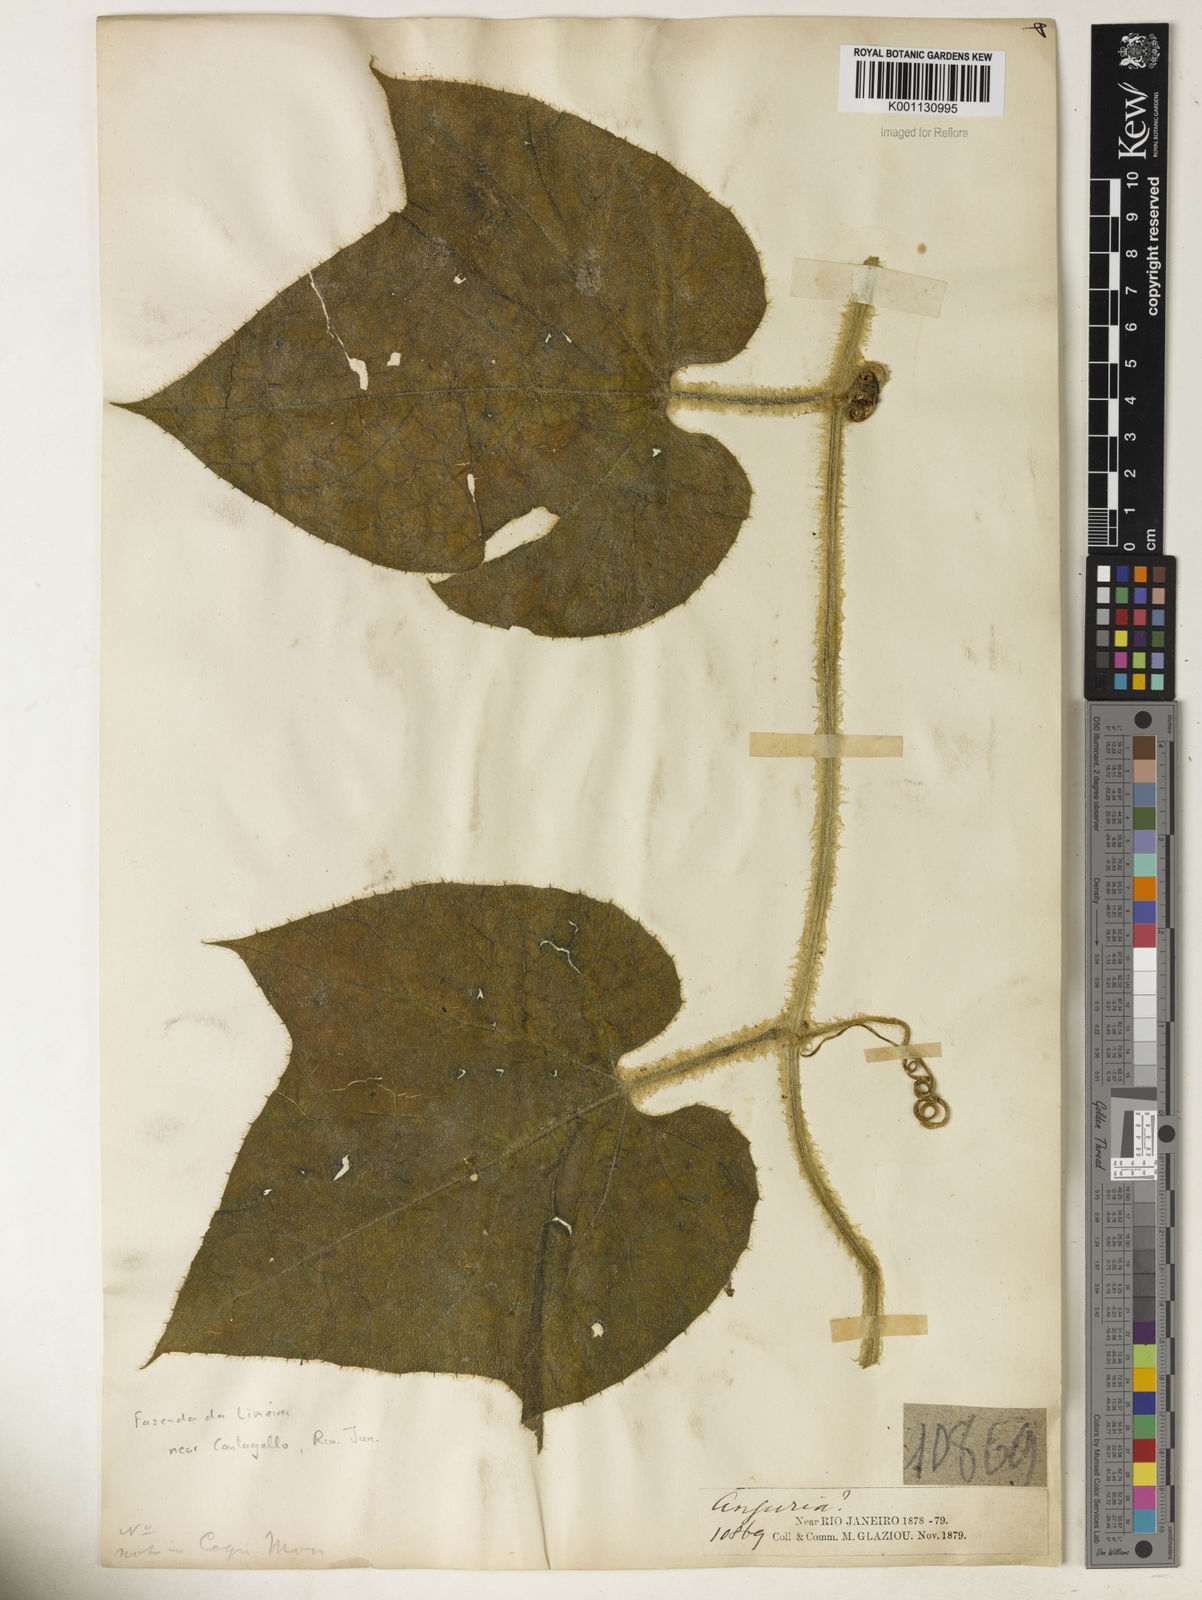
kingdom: Plantae
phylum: Tracheophyta
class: Magnoliopsida
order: Cucurbitales
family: Cucurbitaceae
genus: Gurania
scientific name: Gurania eriantha
